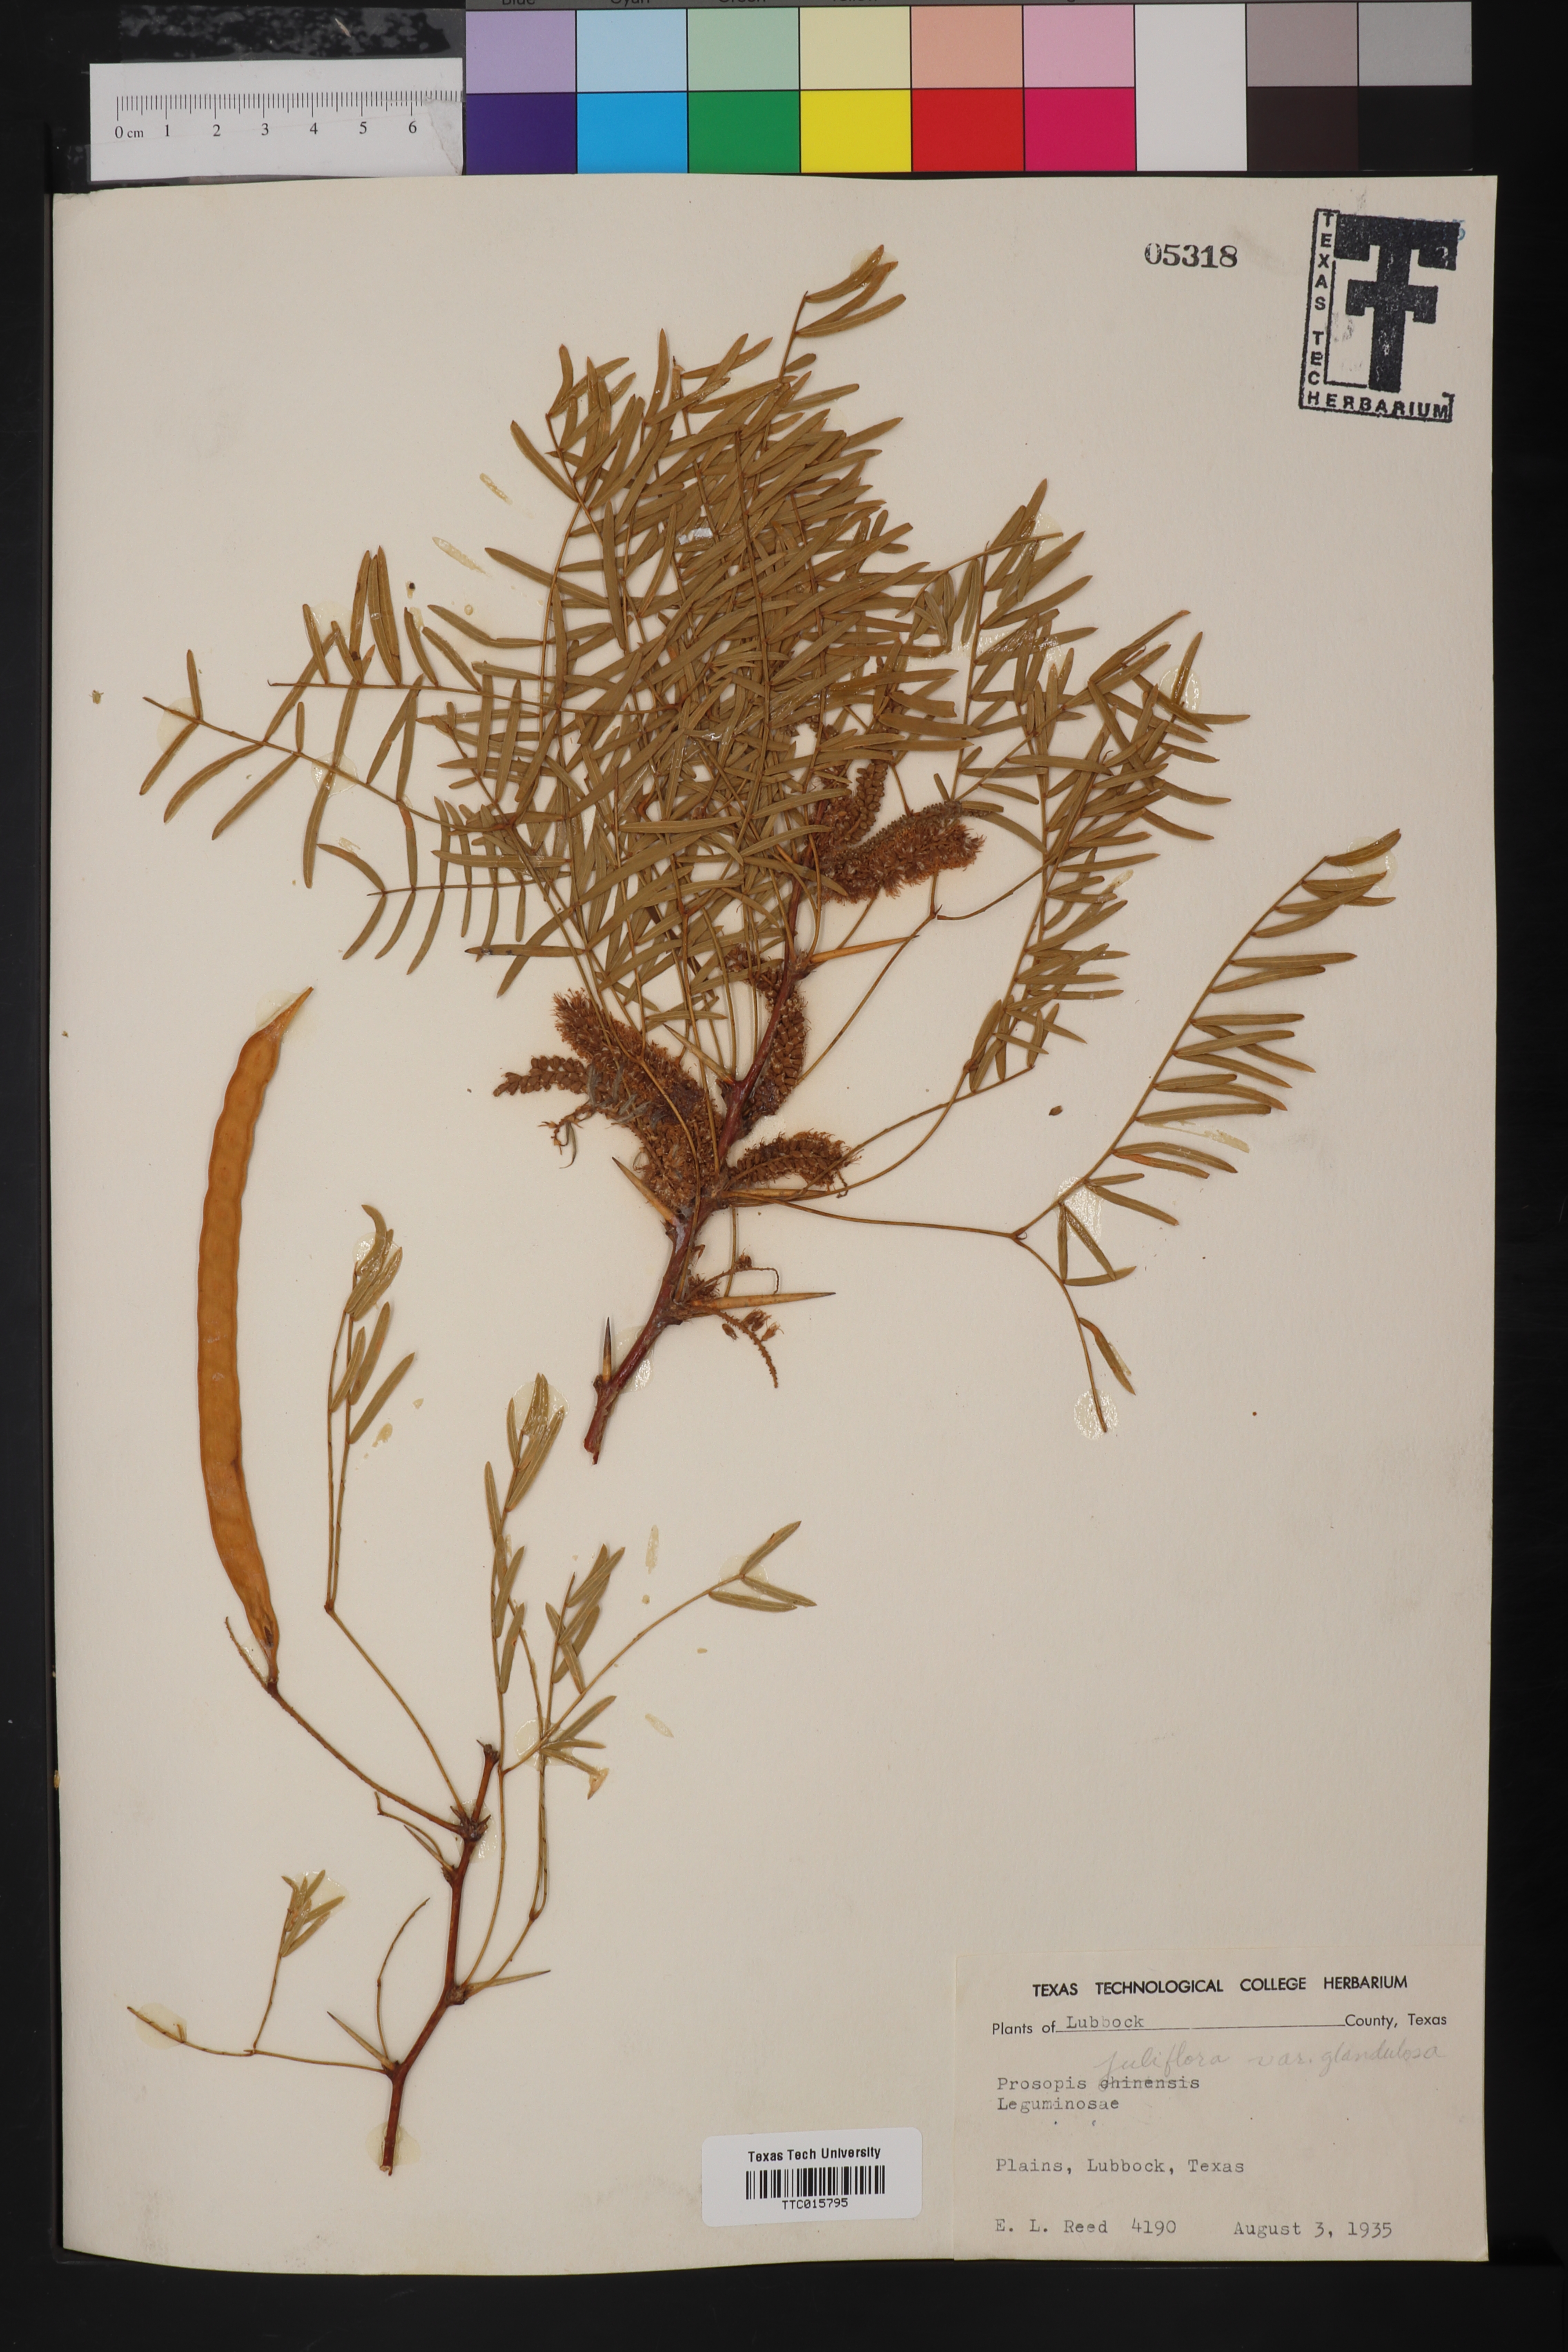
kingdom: Plantae
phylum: Tracheophyta
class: Magnoliopsida
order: Fabales
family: Fabaceae
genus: Prosopis
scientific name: Prosopis glandulosa
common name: Honey mesquite
